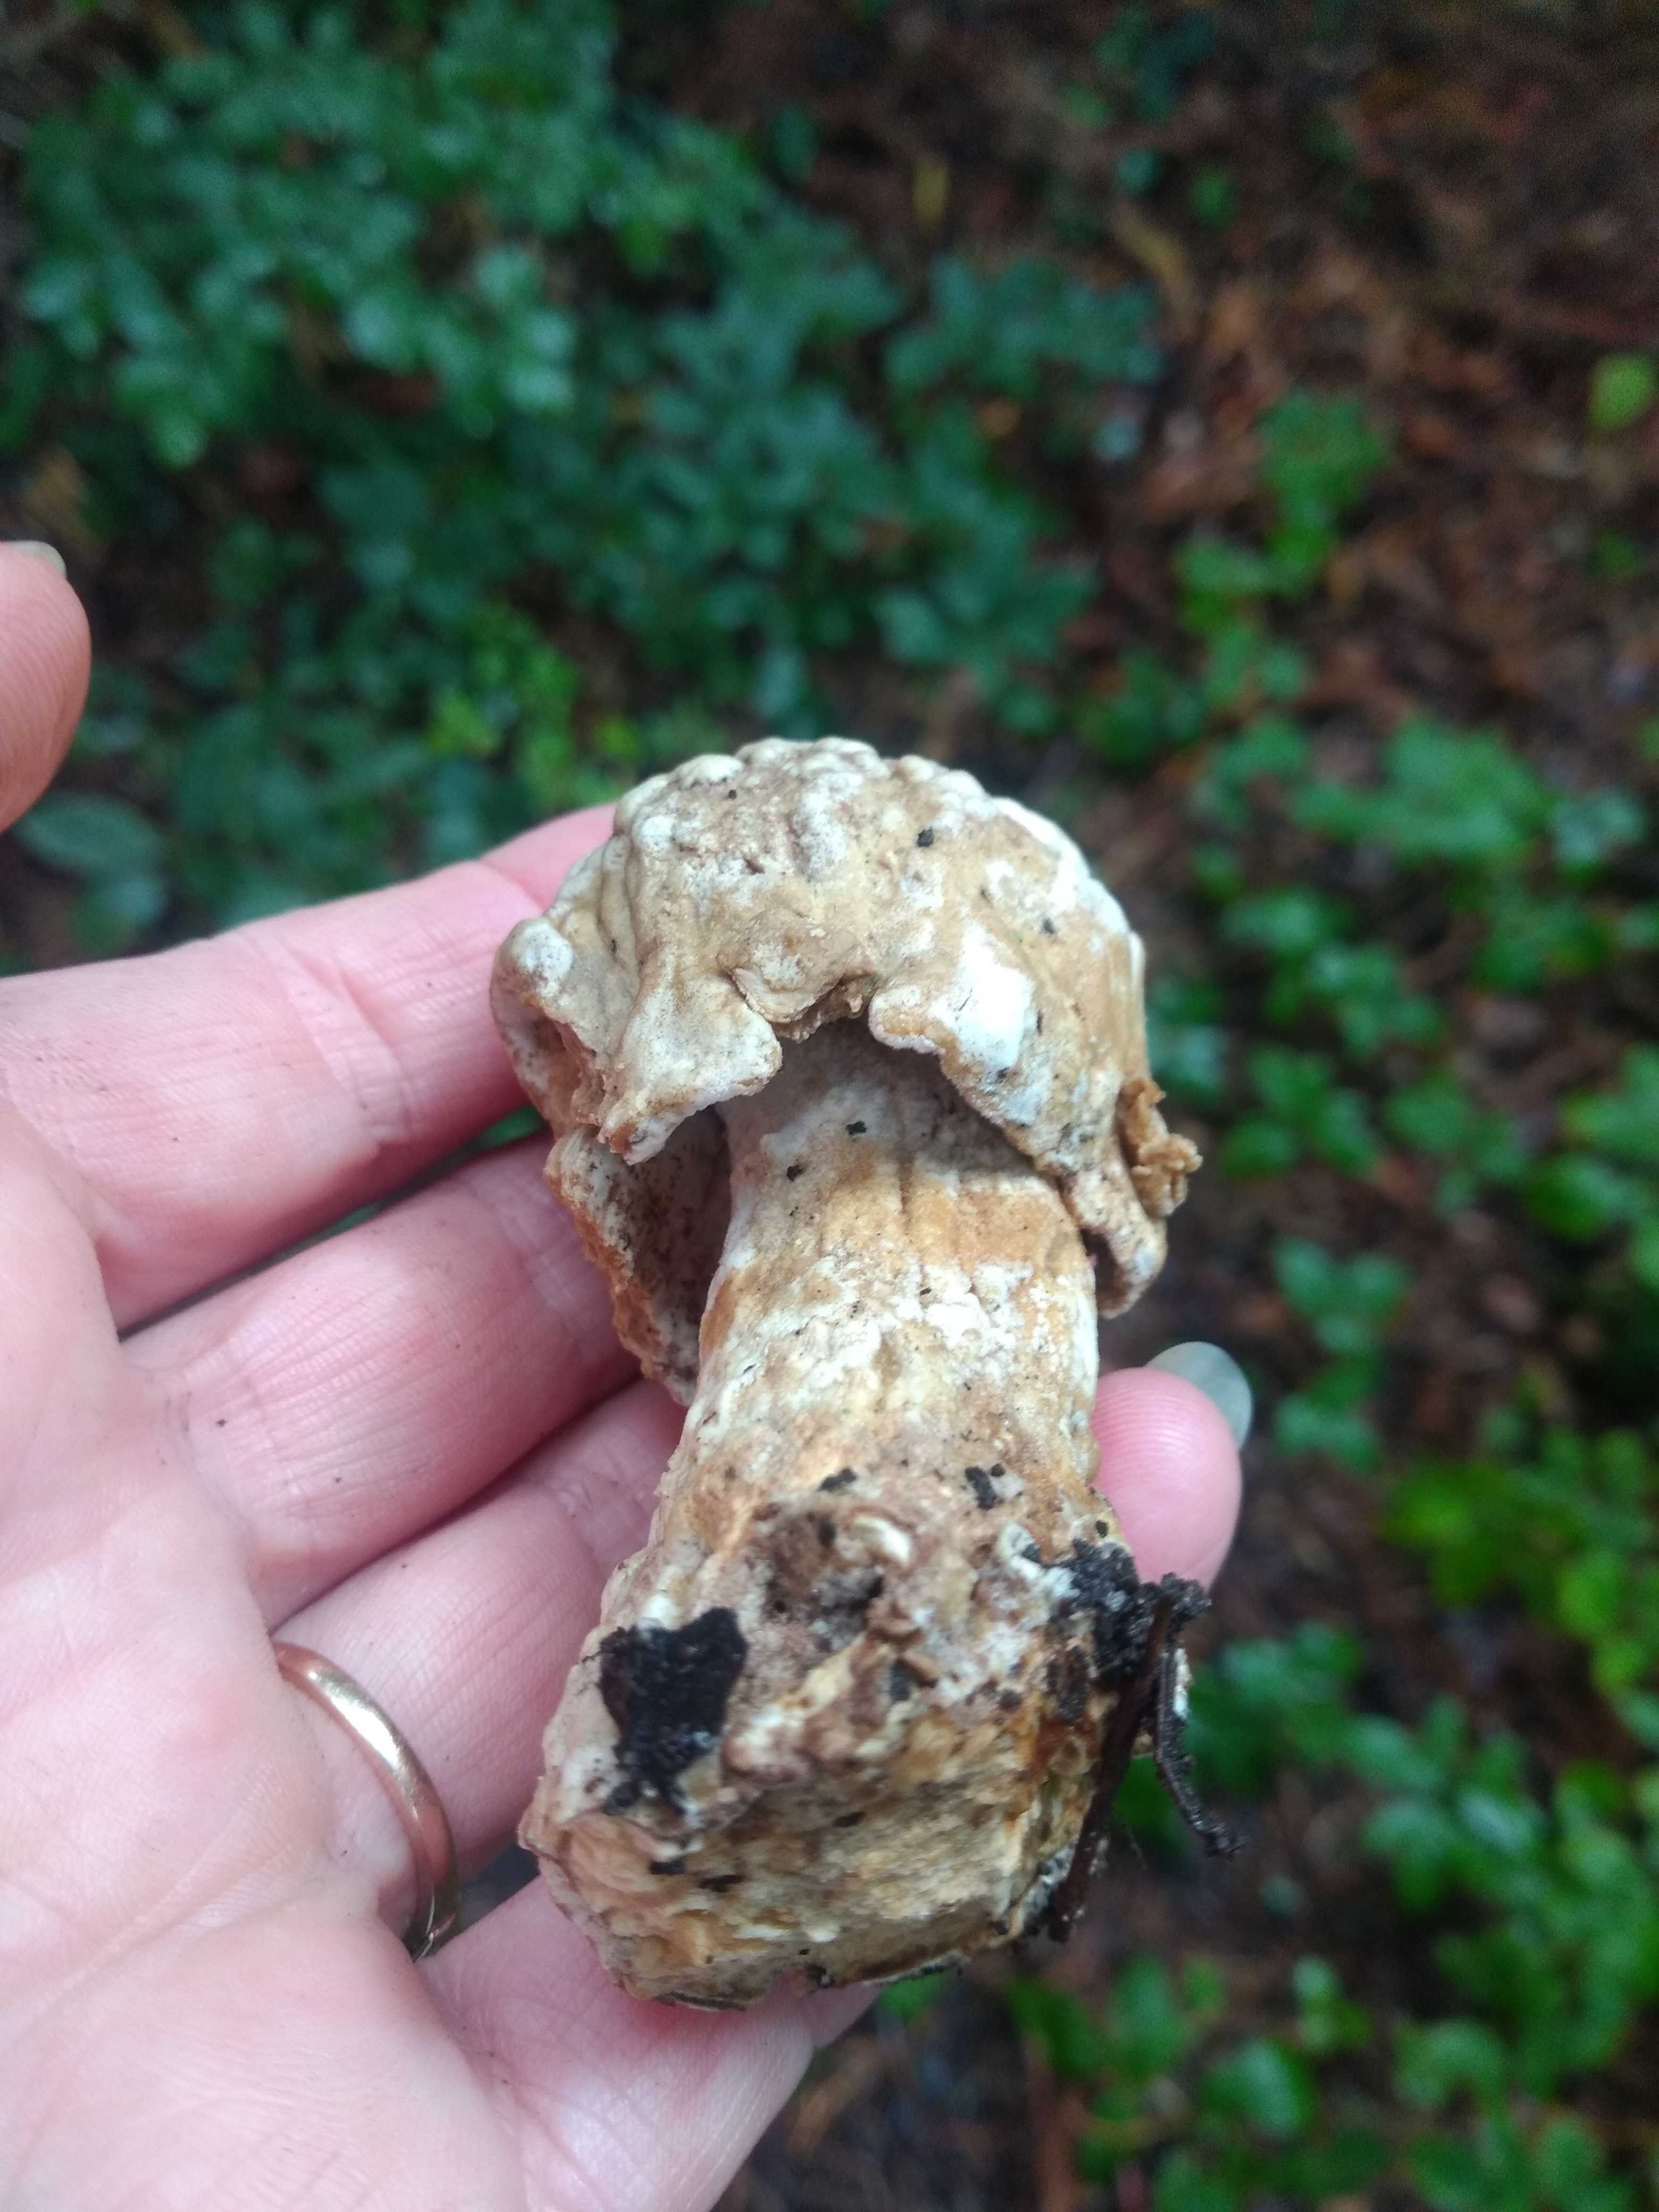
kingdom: Fungi
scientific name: Fungi
